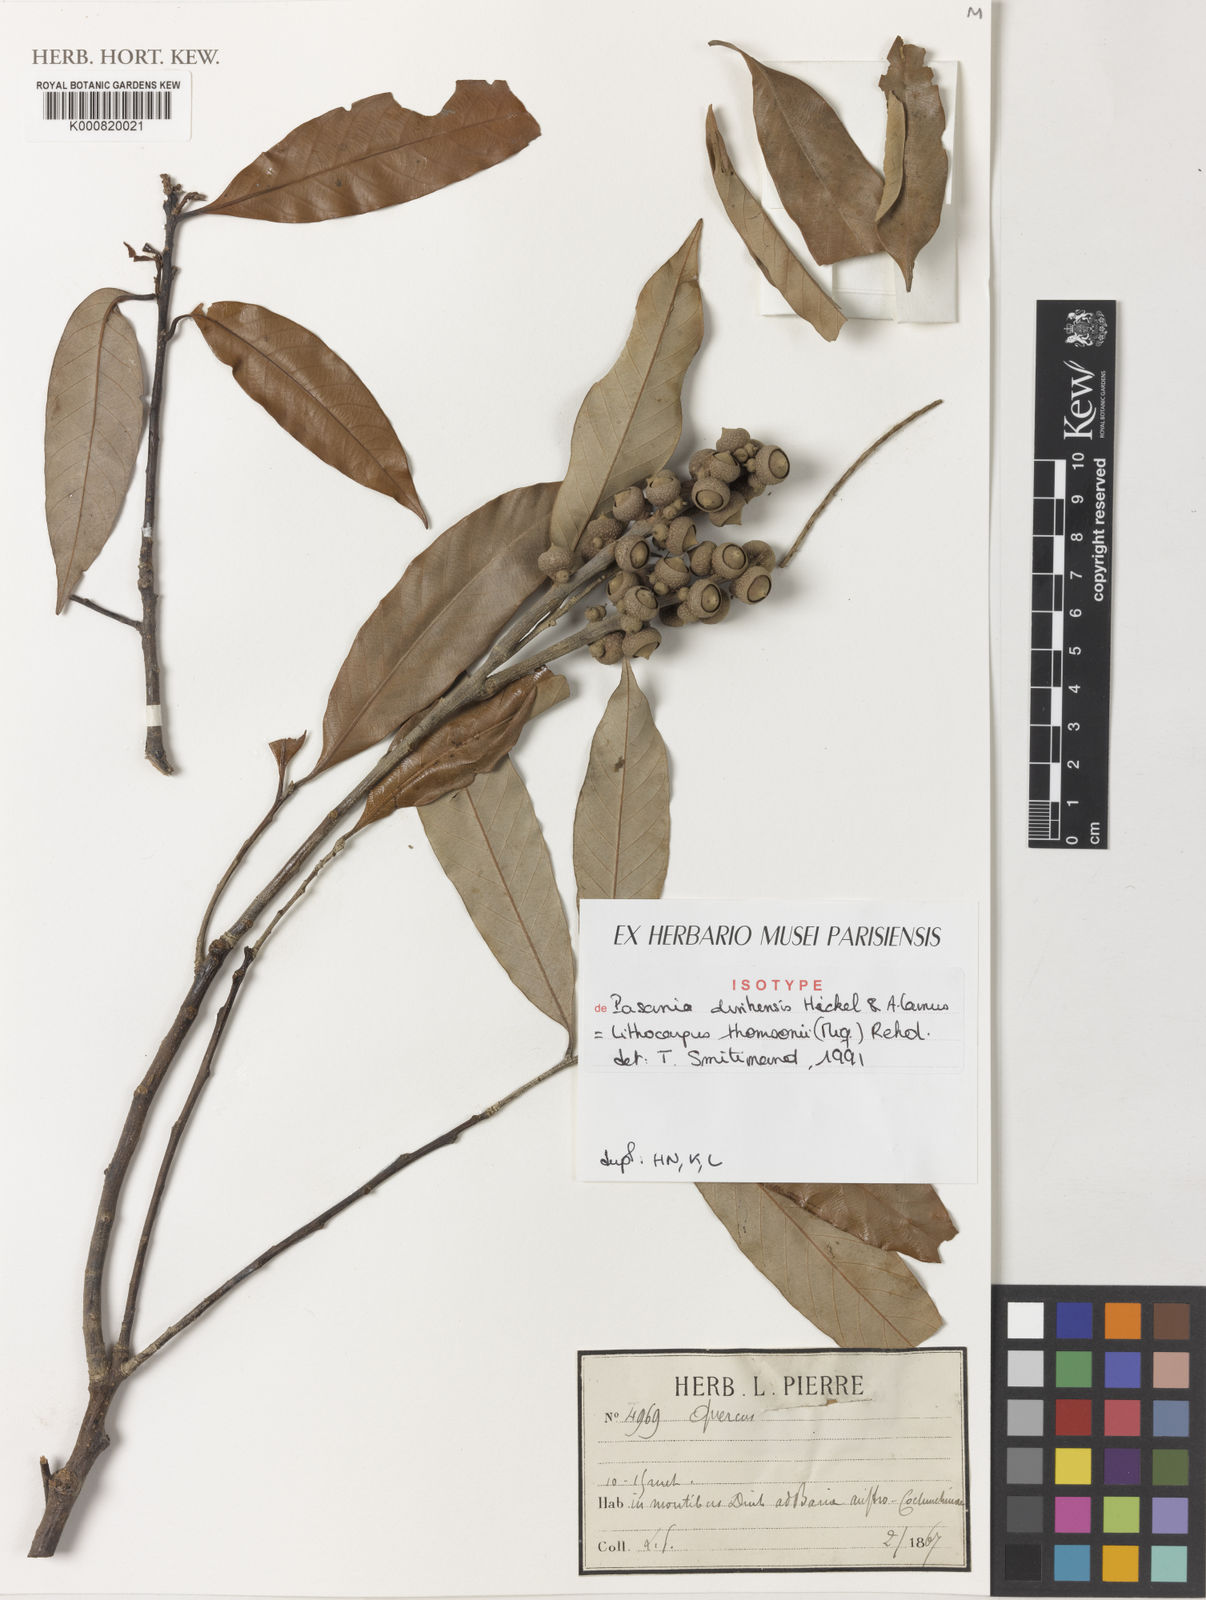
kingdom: Plantae
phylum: Tracheophyta
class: Magnoliopsida
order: Fagales
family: Fagaceae
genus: Lithocarpus
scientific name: Lithocarpus thomsonii
